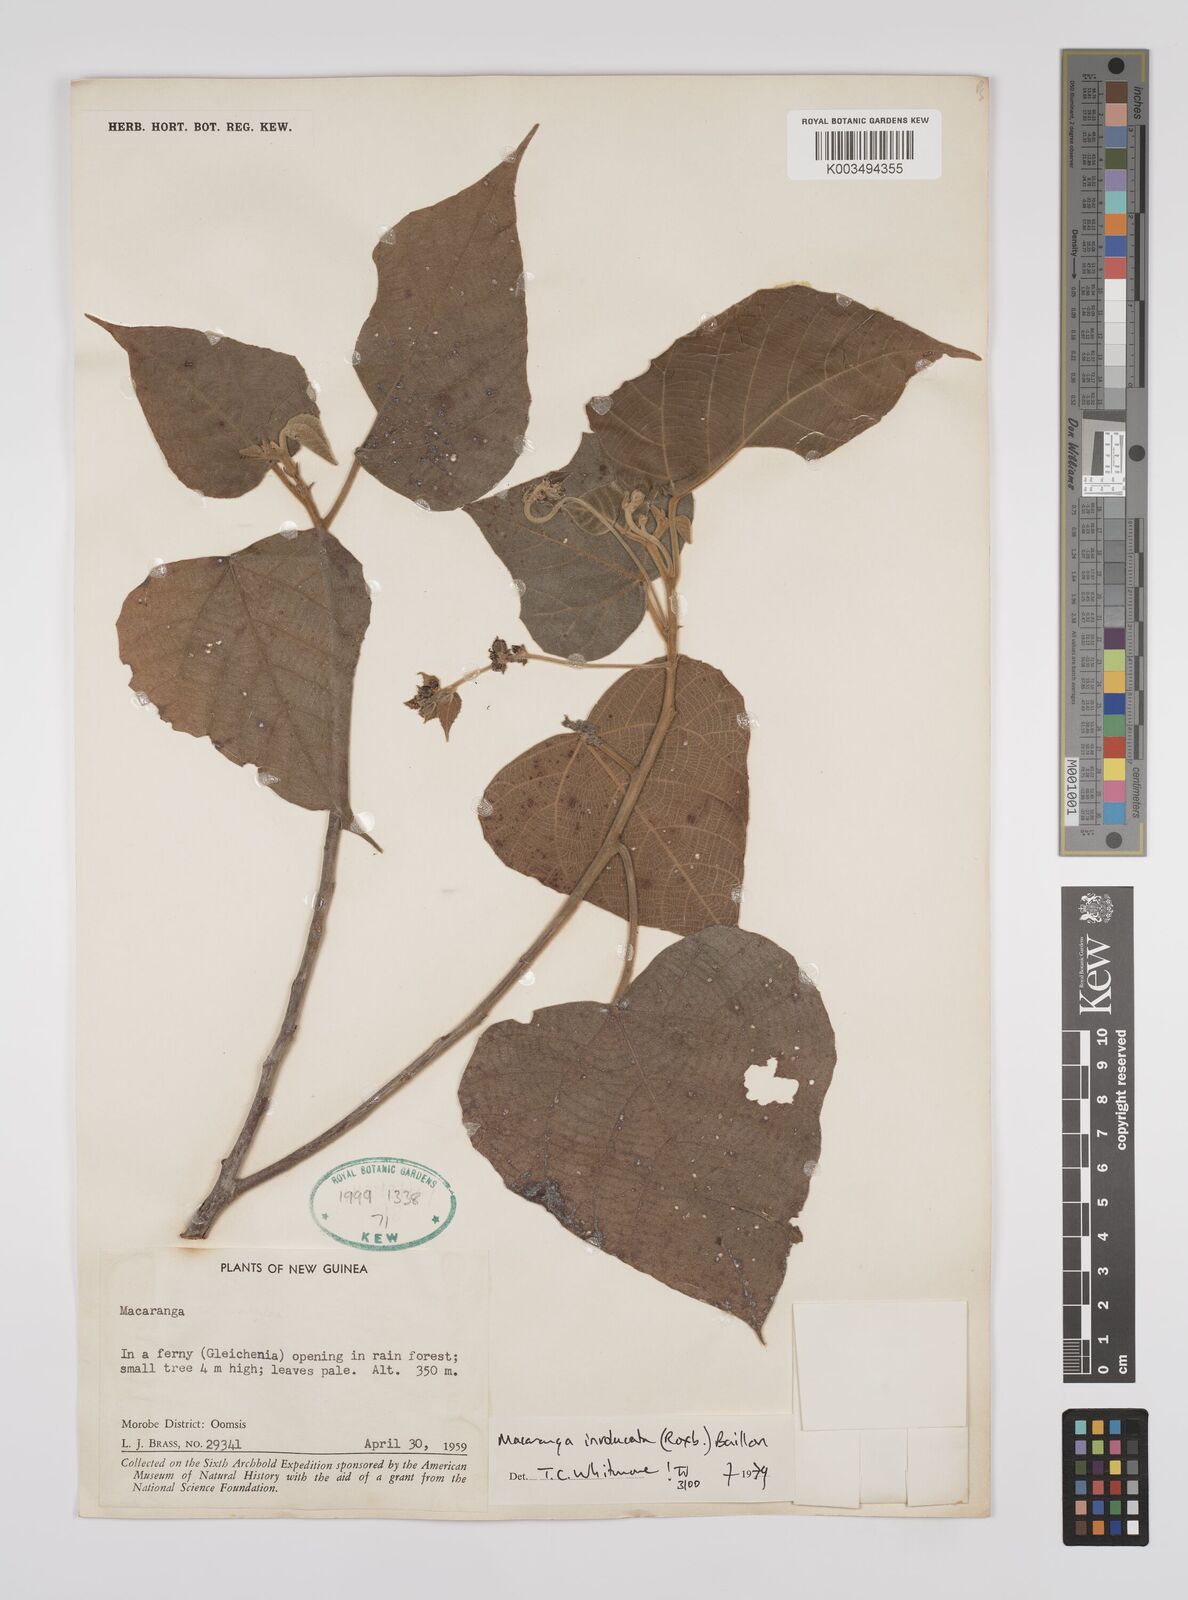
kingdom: Plantae
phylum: Tracheophyta
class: Magnoliopsida
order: Malpighiales
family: Euphorbiaceae
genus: Macaranga
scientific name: Macaranga involucrata
